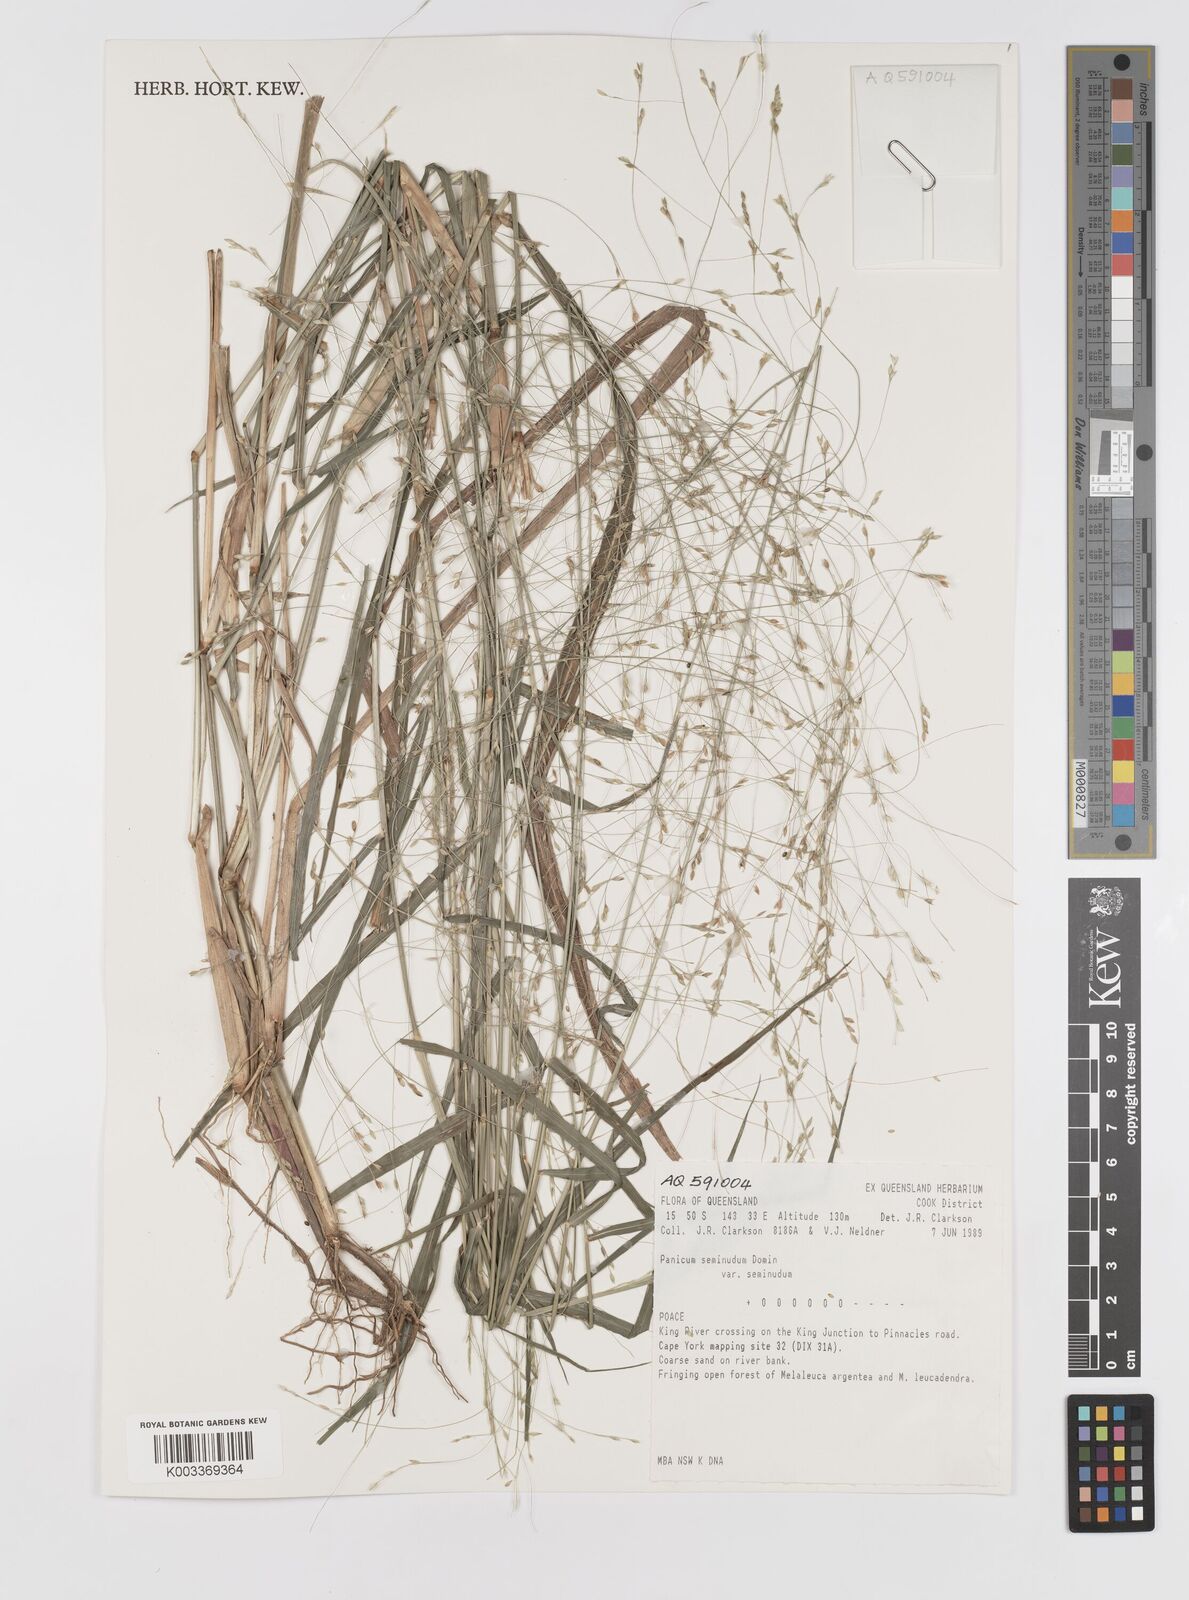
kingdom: Plantae
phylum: Tracheophyta
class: Liliopsida
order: Poales
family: Poaceae
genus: Panicum
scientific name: Panicum seminudum
